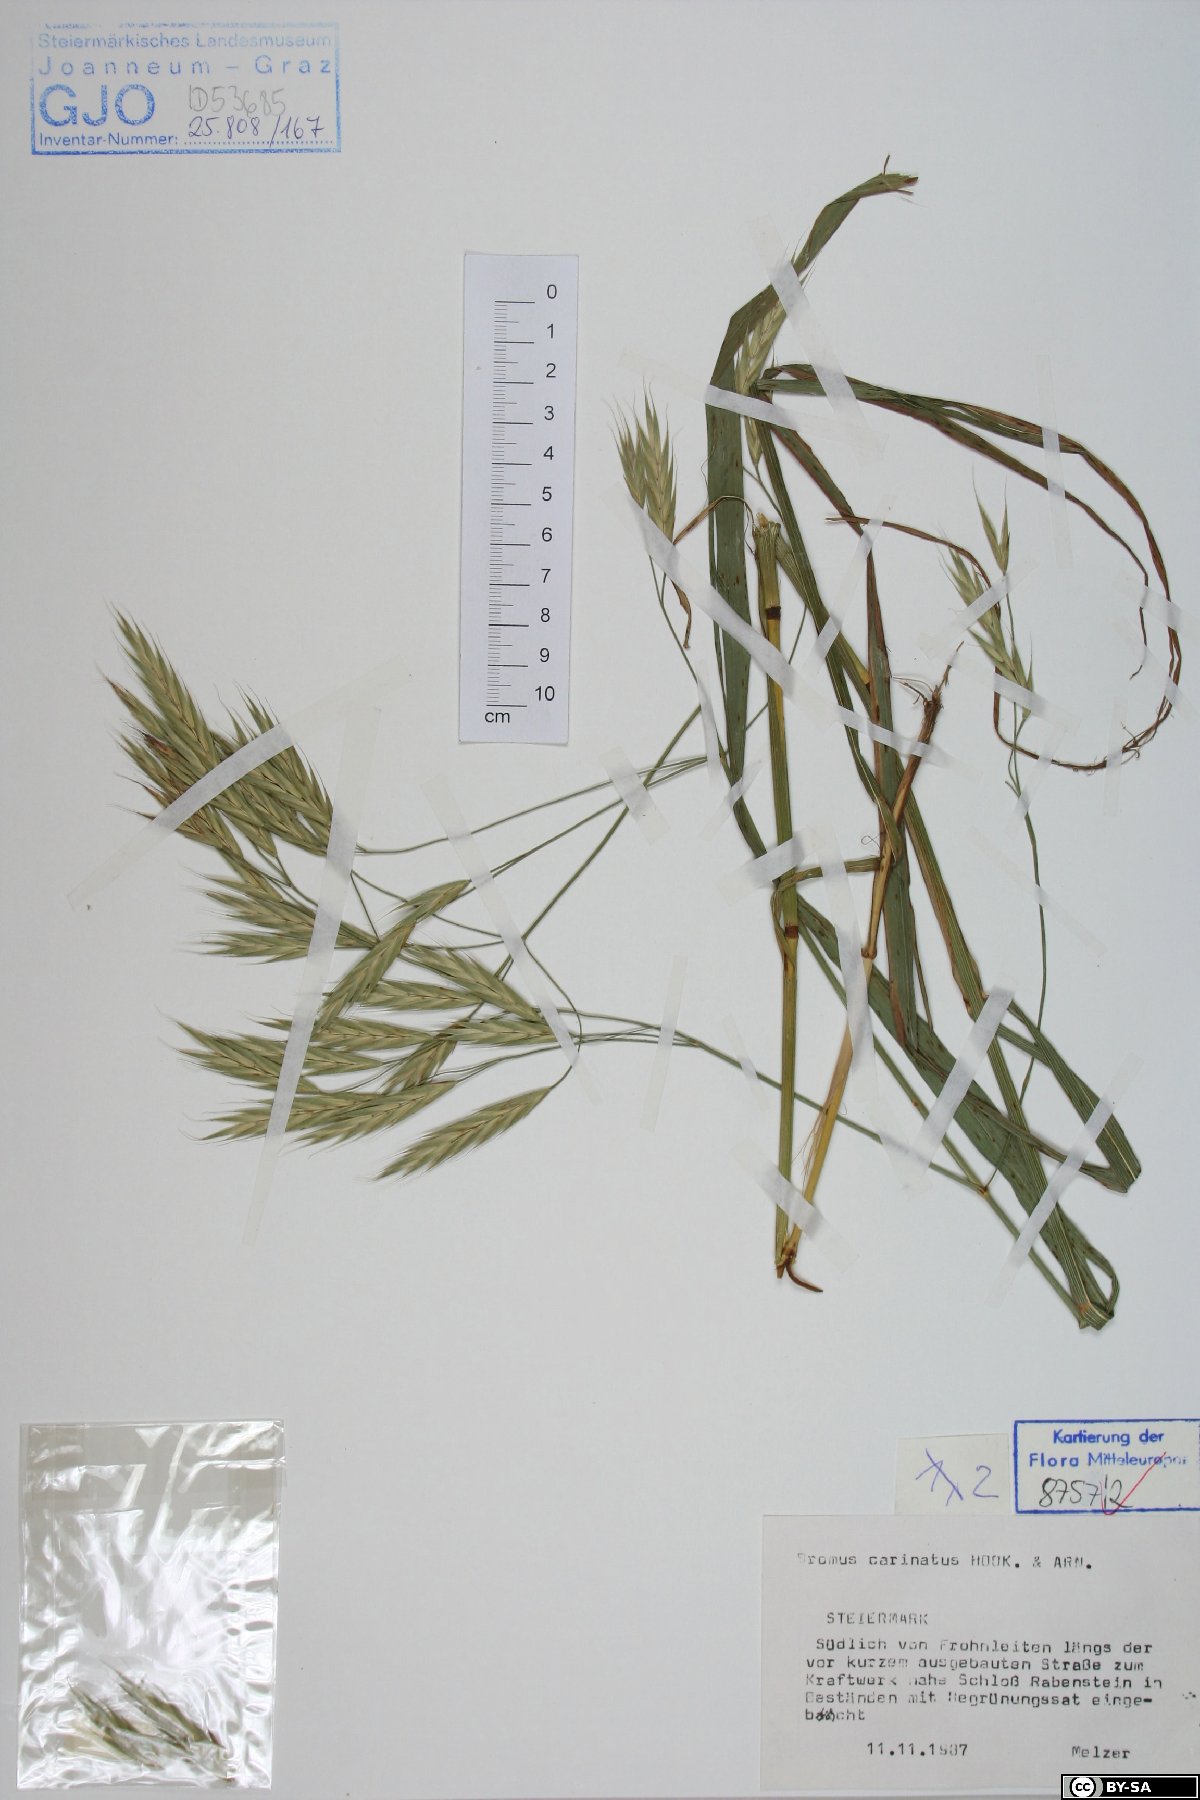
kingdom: Plantae
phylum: Tracheophyta
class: Liliopsida
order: Poales
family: Poaceae
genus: Bromus
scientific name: Bromus carinatus
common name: Mountain brome
